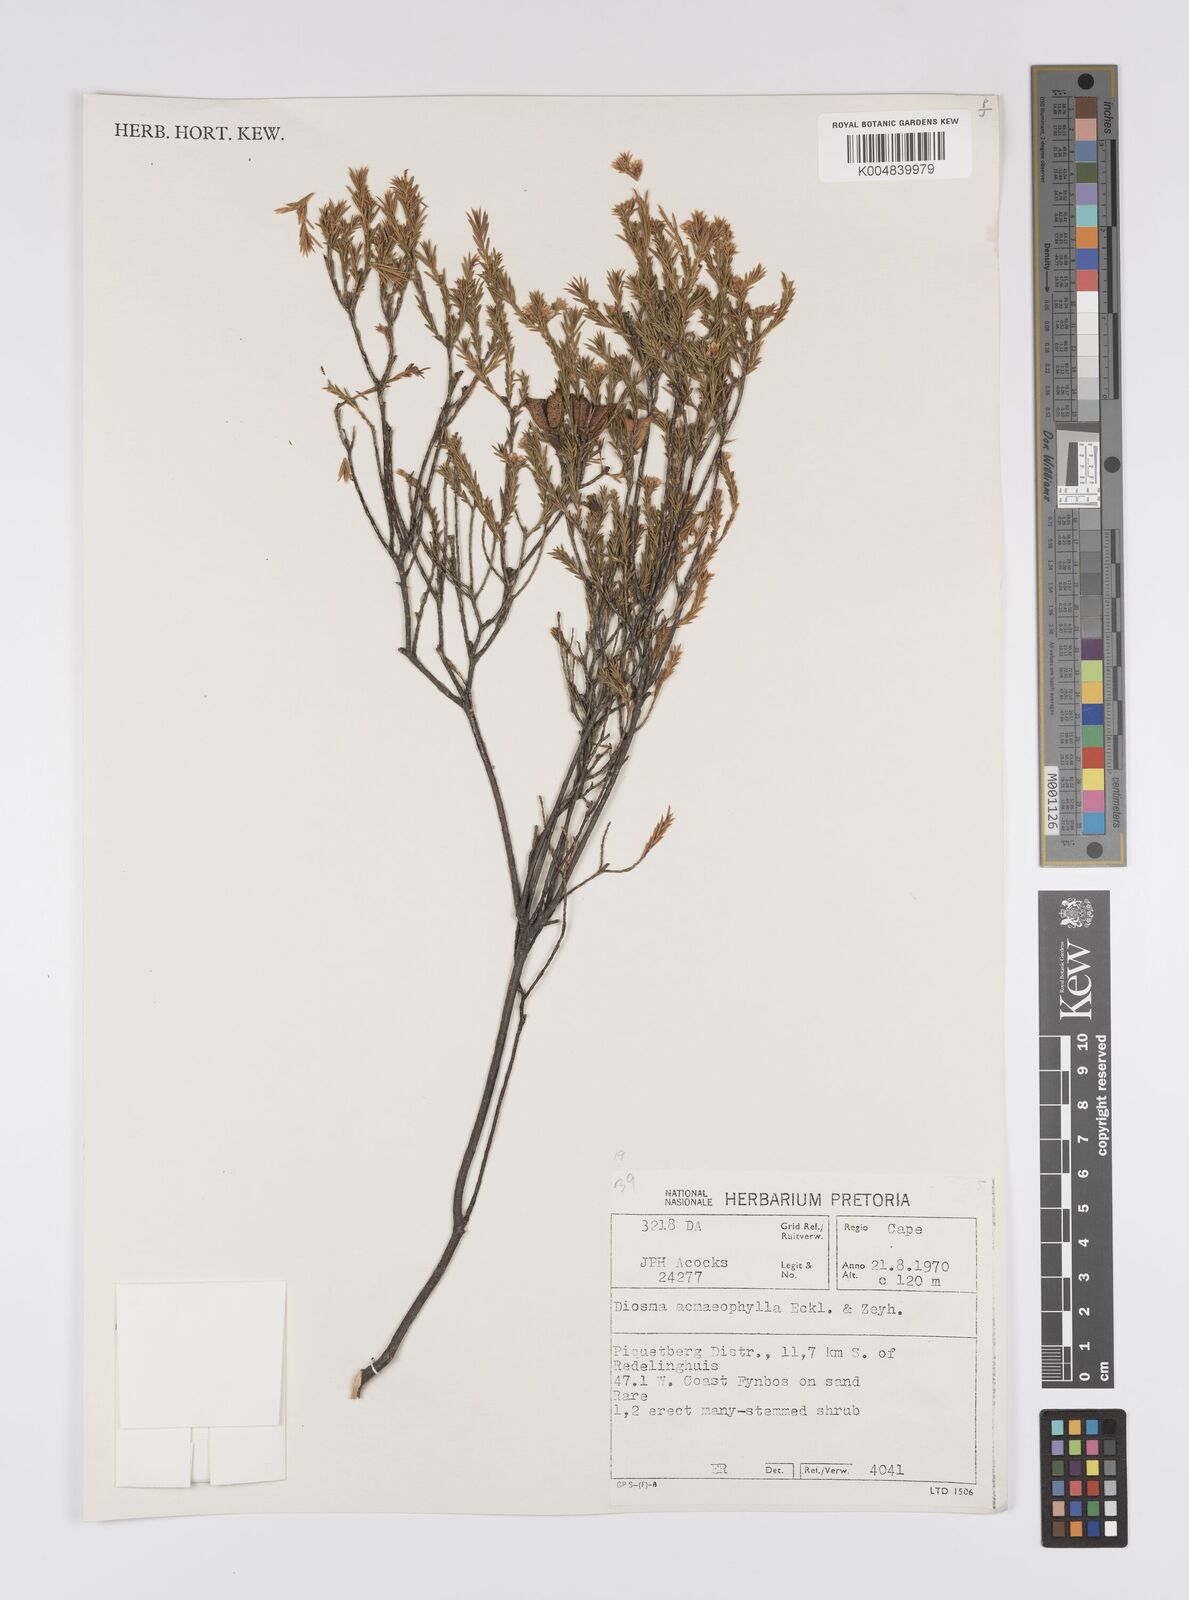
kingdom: Plantae
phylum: Tracheophyta
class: Magnoliopsida
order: Sapindales
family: Rutaceae
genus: Diosma
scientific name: Diosma acmaeophylla
